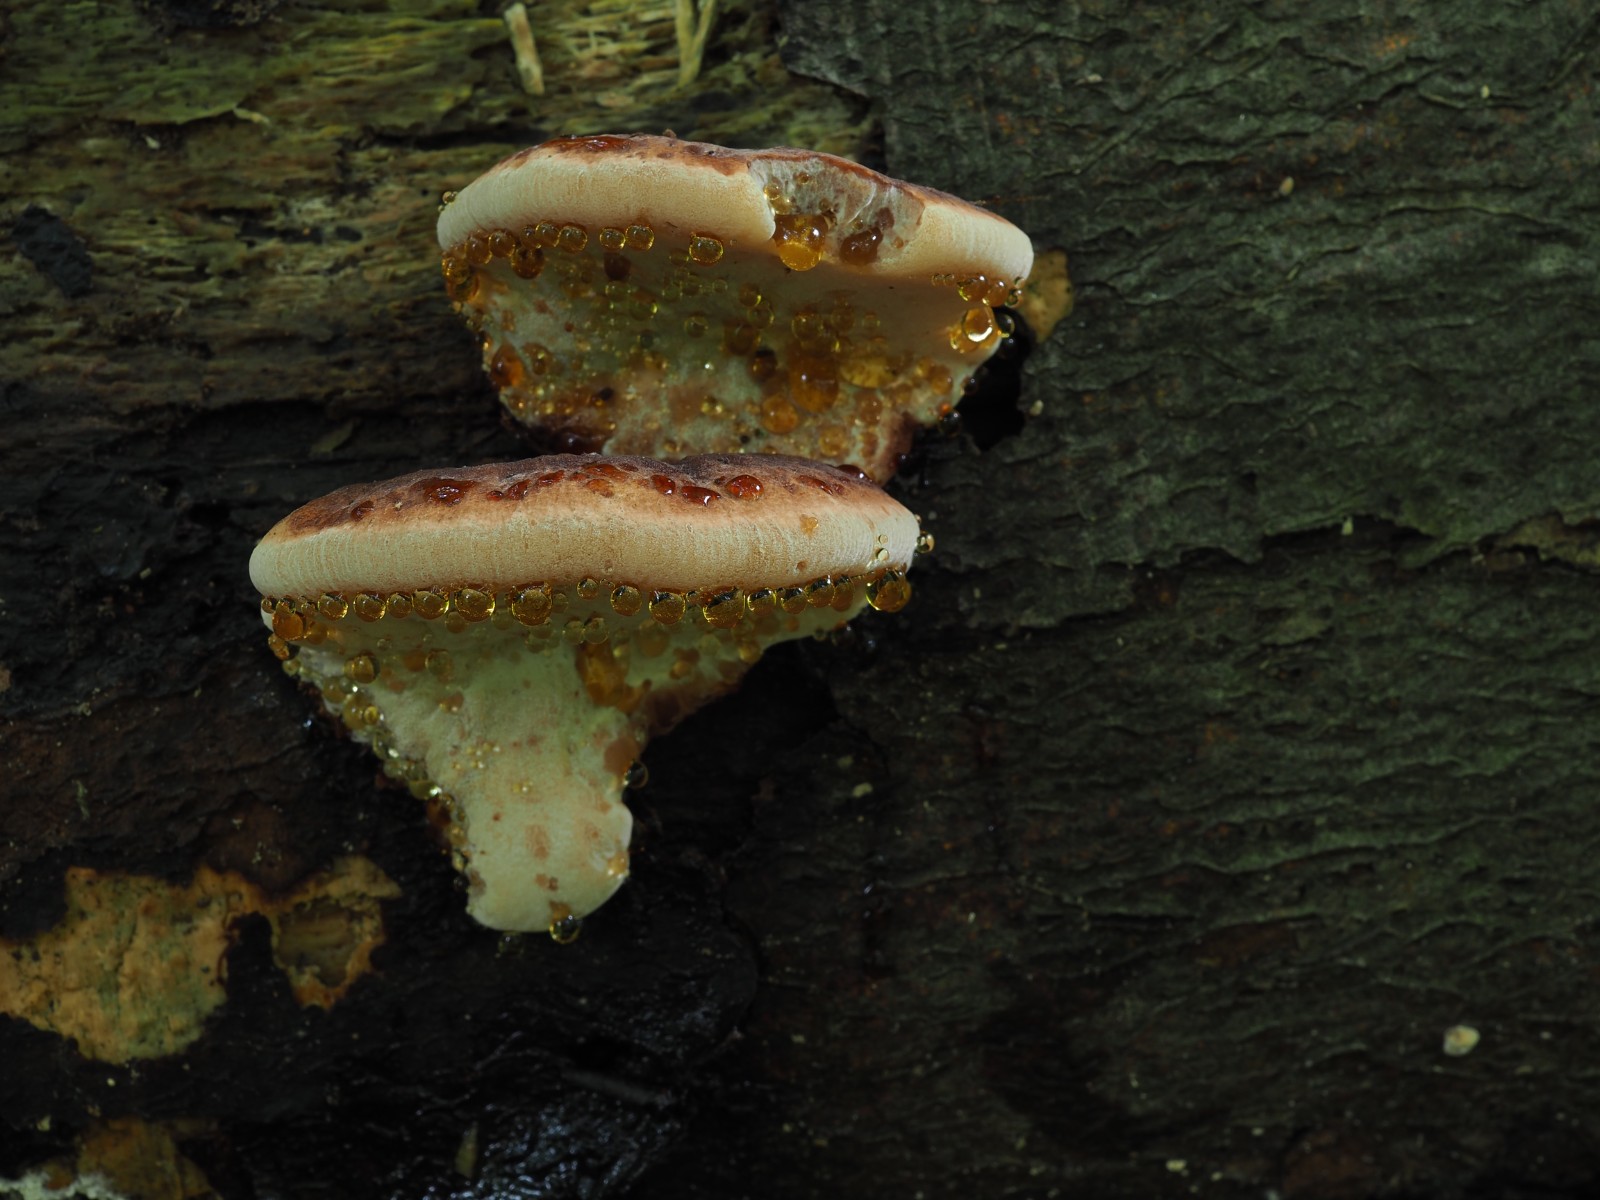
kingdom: Fungi
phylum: Basidiomycota
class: Agaricomycetes
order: Polyporales
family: Ischnodermataceae
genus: Ischnoderma
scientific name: Ischnoderma resinosum
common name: løv-tjæreporesvamp
